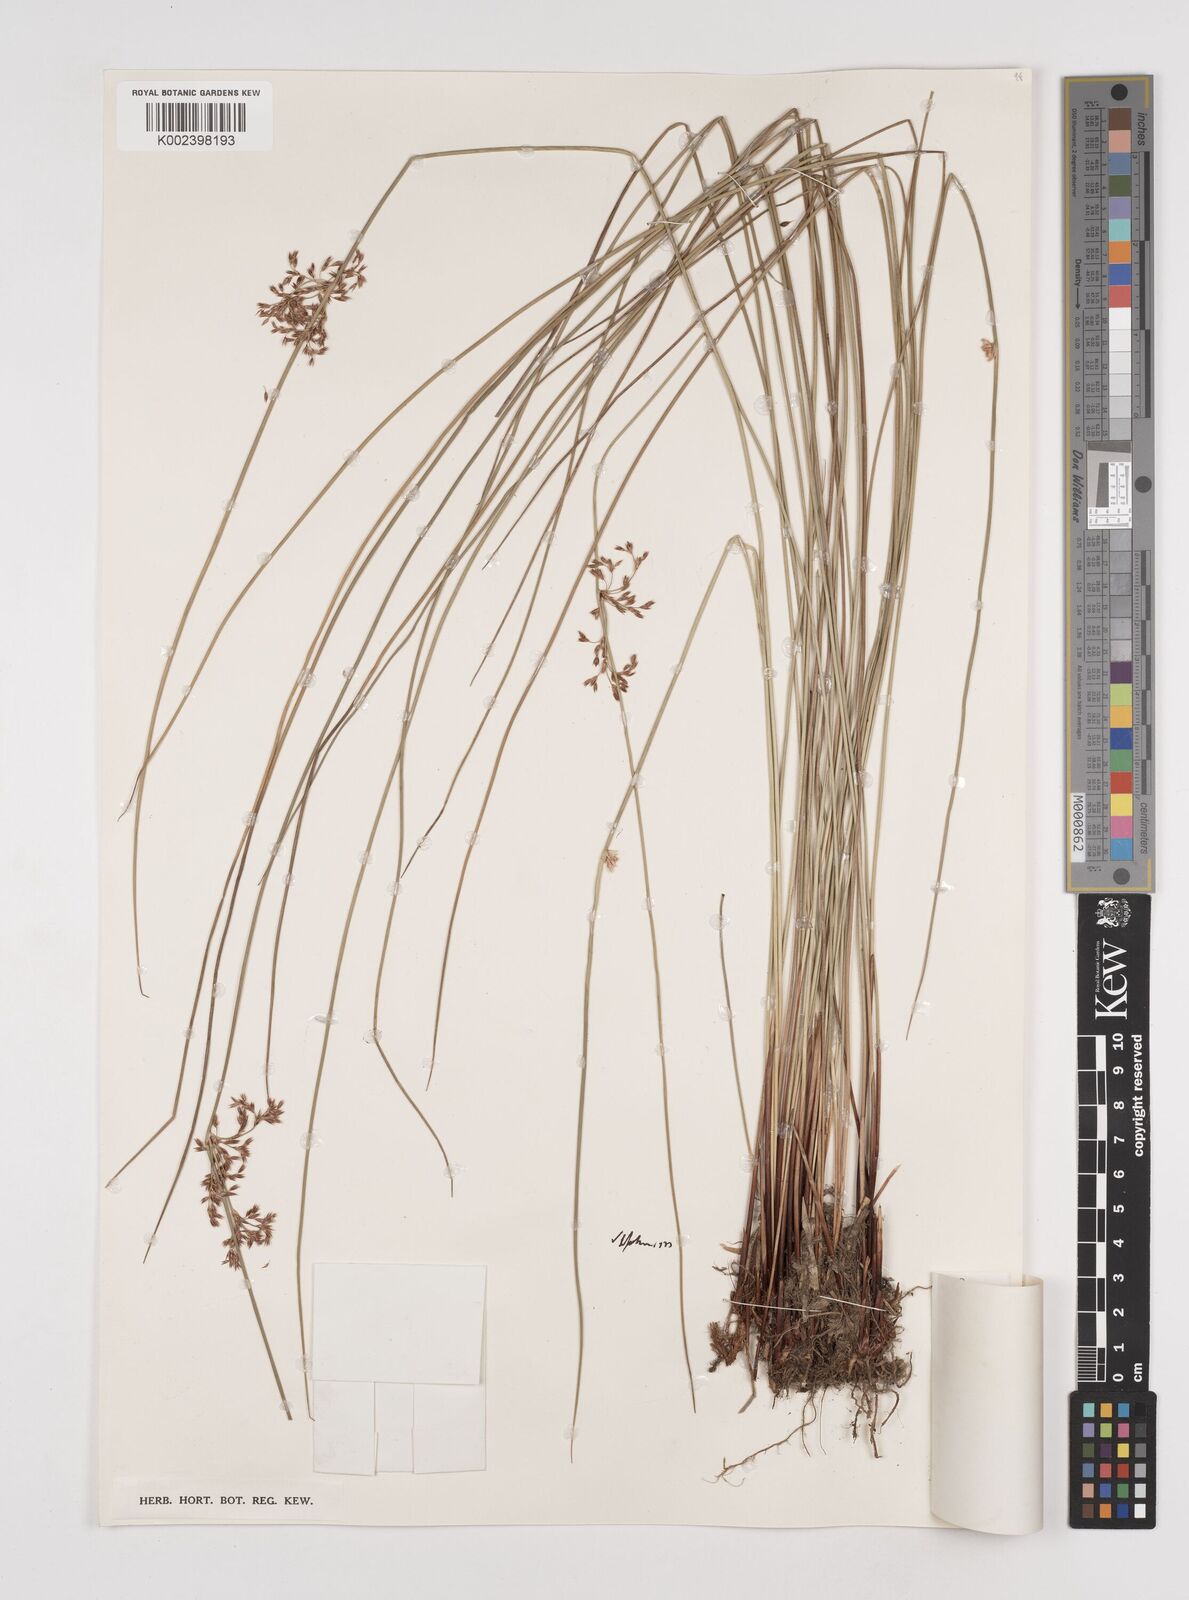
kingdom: Plantae
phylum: Tracheophyta
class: Liliopsida
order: Poales
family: Juncaceae
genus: Juncus
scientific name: Juncus decipiens
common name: Lamp rush
